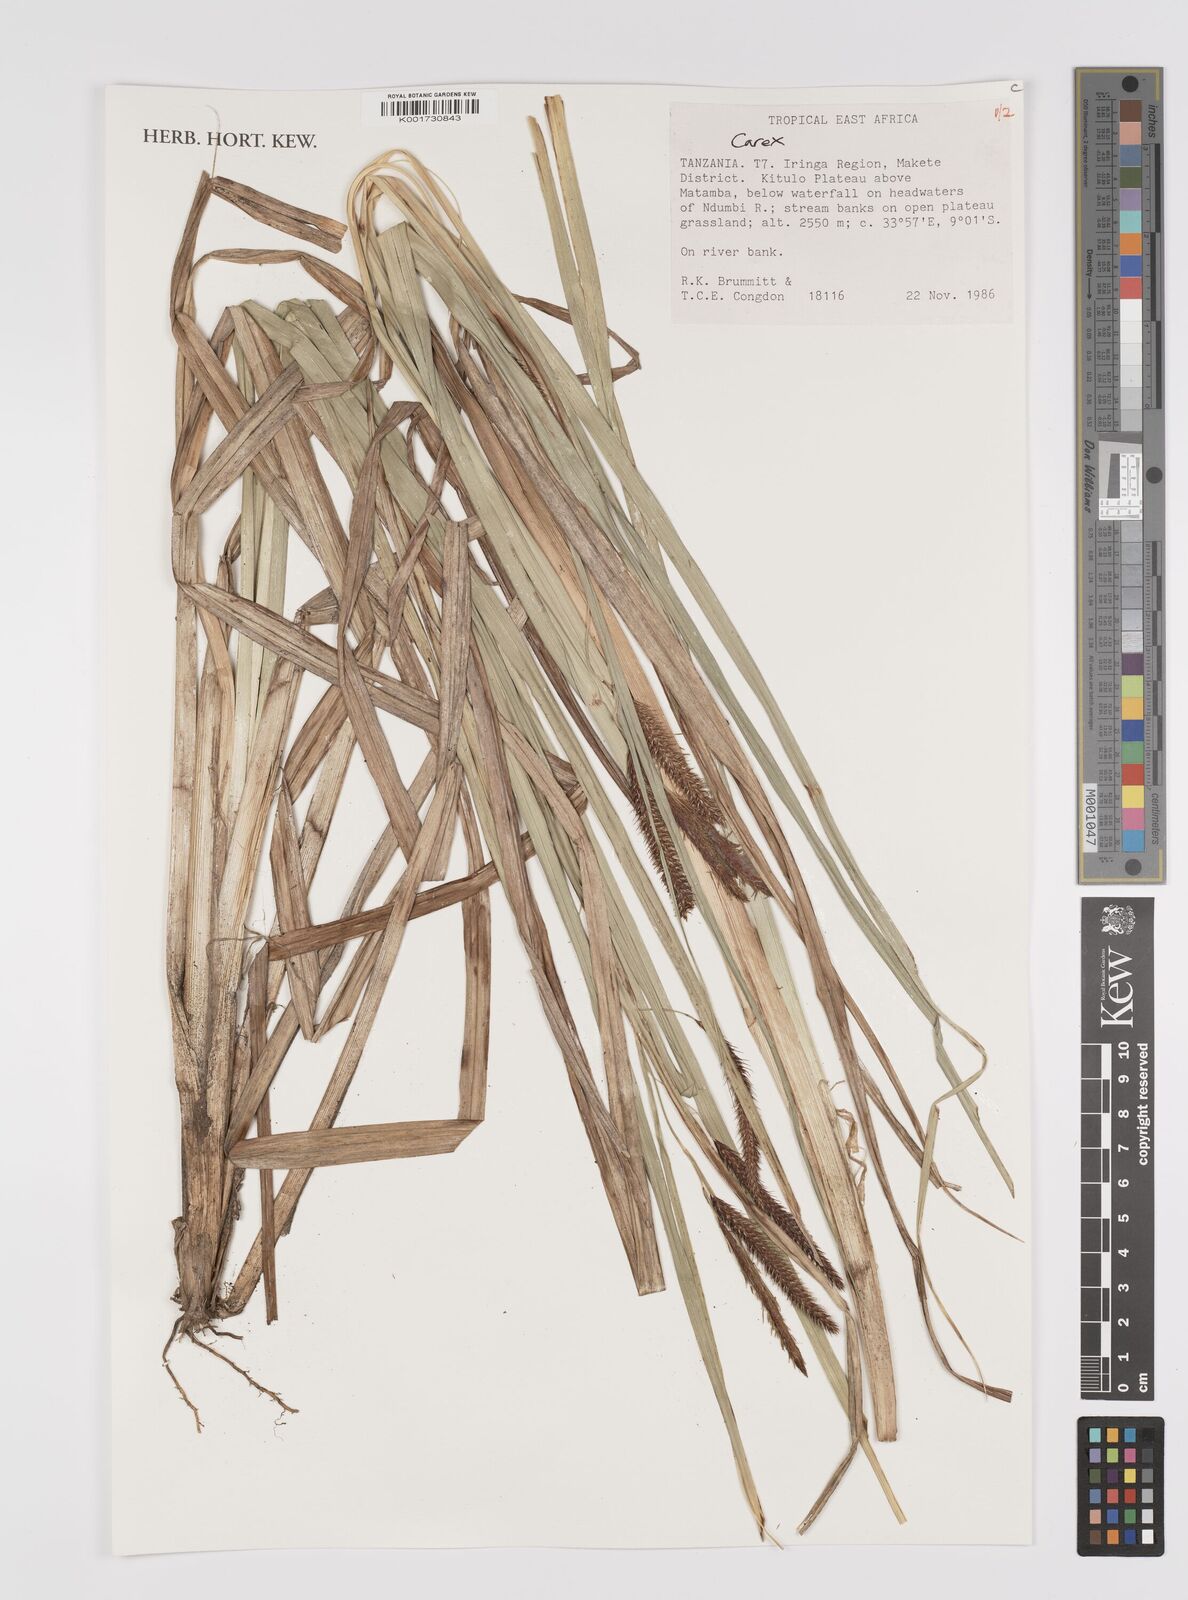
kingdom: Plantae
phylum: Tracheophyta
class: Liliopsida
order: Poales
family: Cyperaceae
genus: Carex
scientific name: Carex
